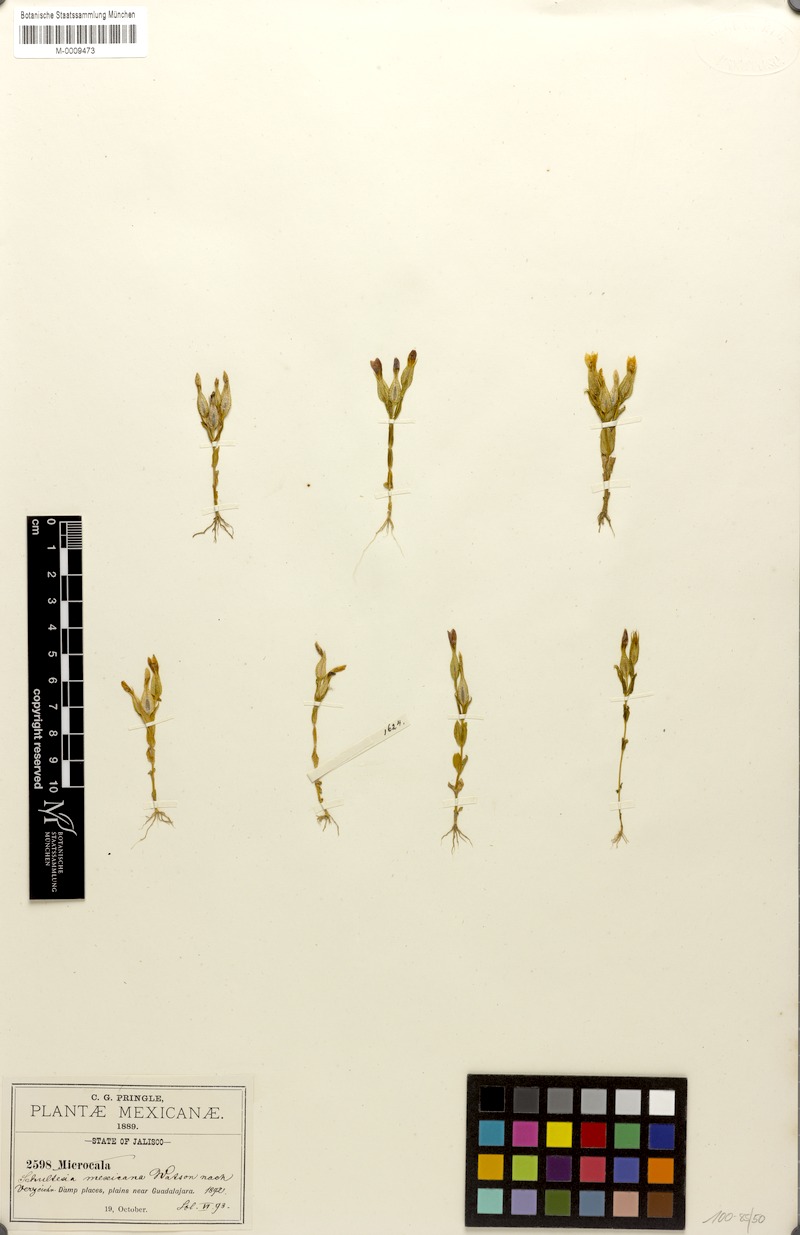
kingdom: Plantae
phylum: Tracheophyta
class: Magnoliopsida
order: Gentianales
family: Gentianaceae
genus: Schultesia
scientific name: Schultesia guianensis
